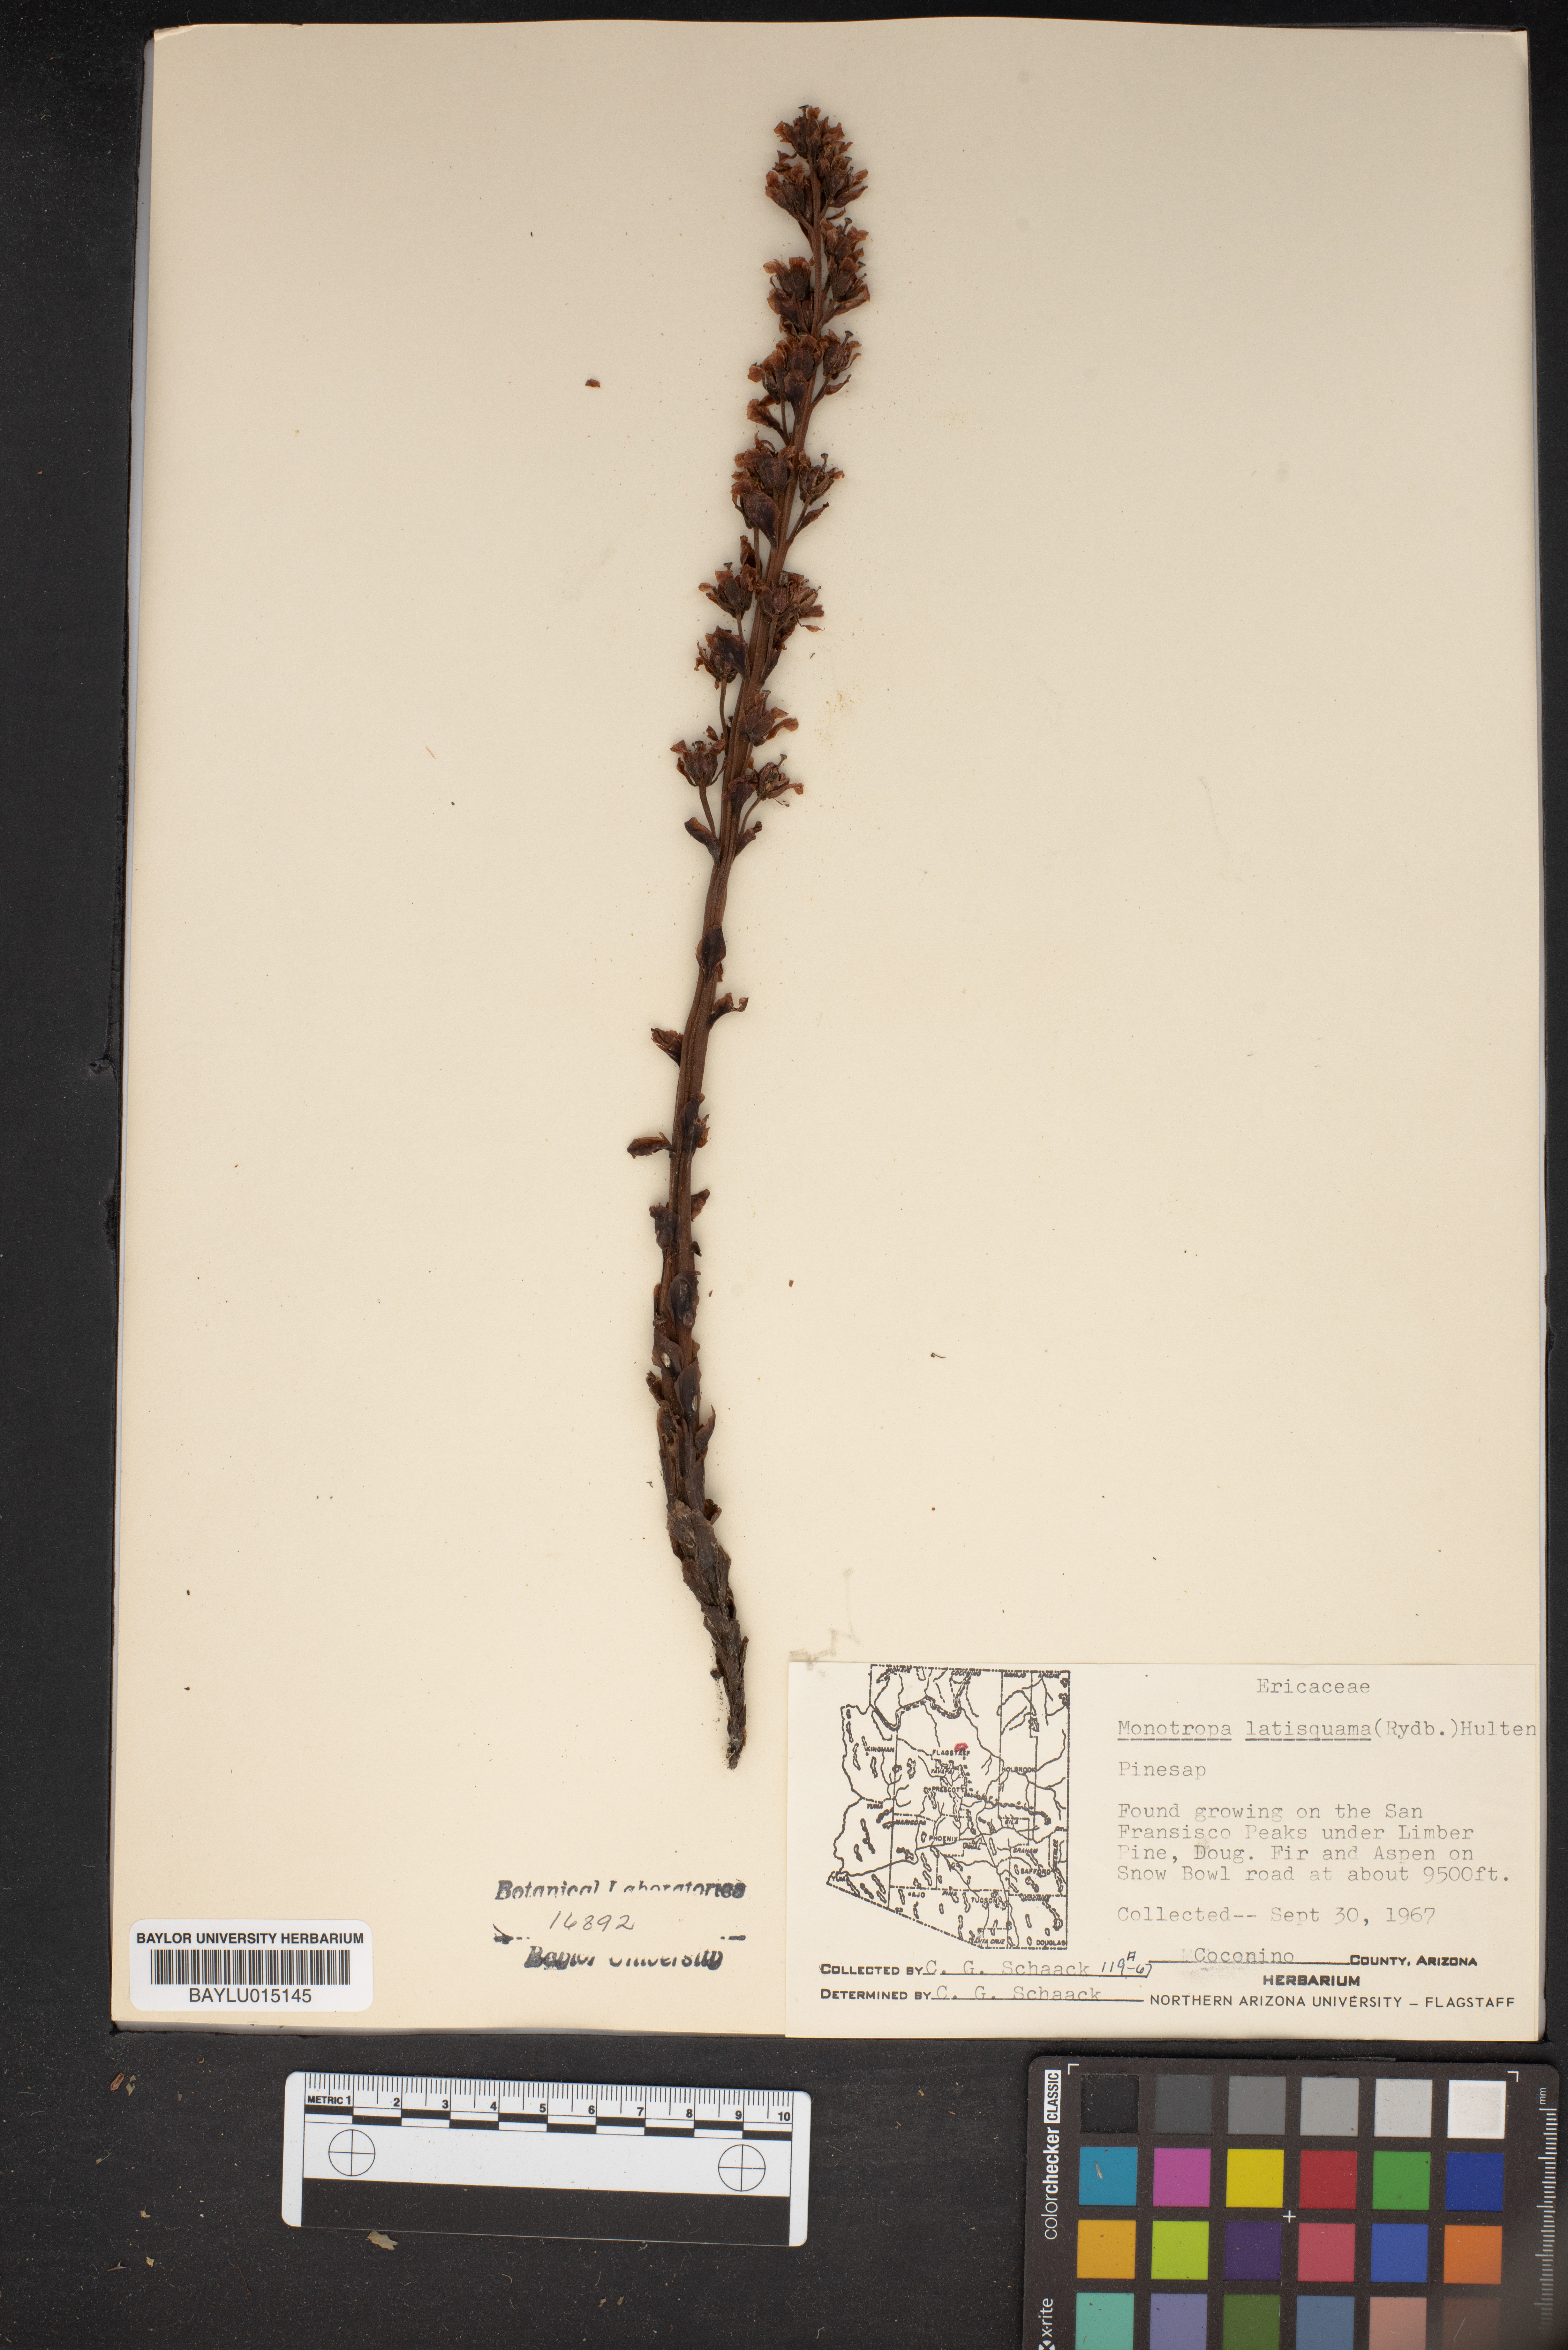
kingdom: Plantae
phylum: Tracheophyta
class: Magnoliopsida
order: Ericales
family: Ericaceae
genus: Hypopitys
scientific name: Hypopitys monotropa
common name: Yellow bird's-nest
